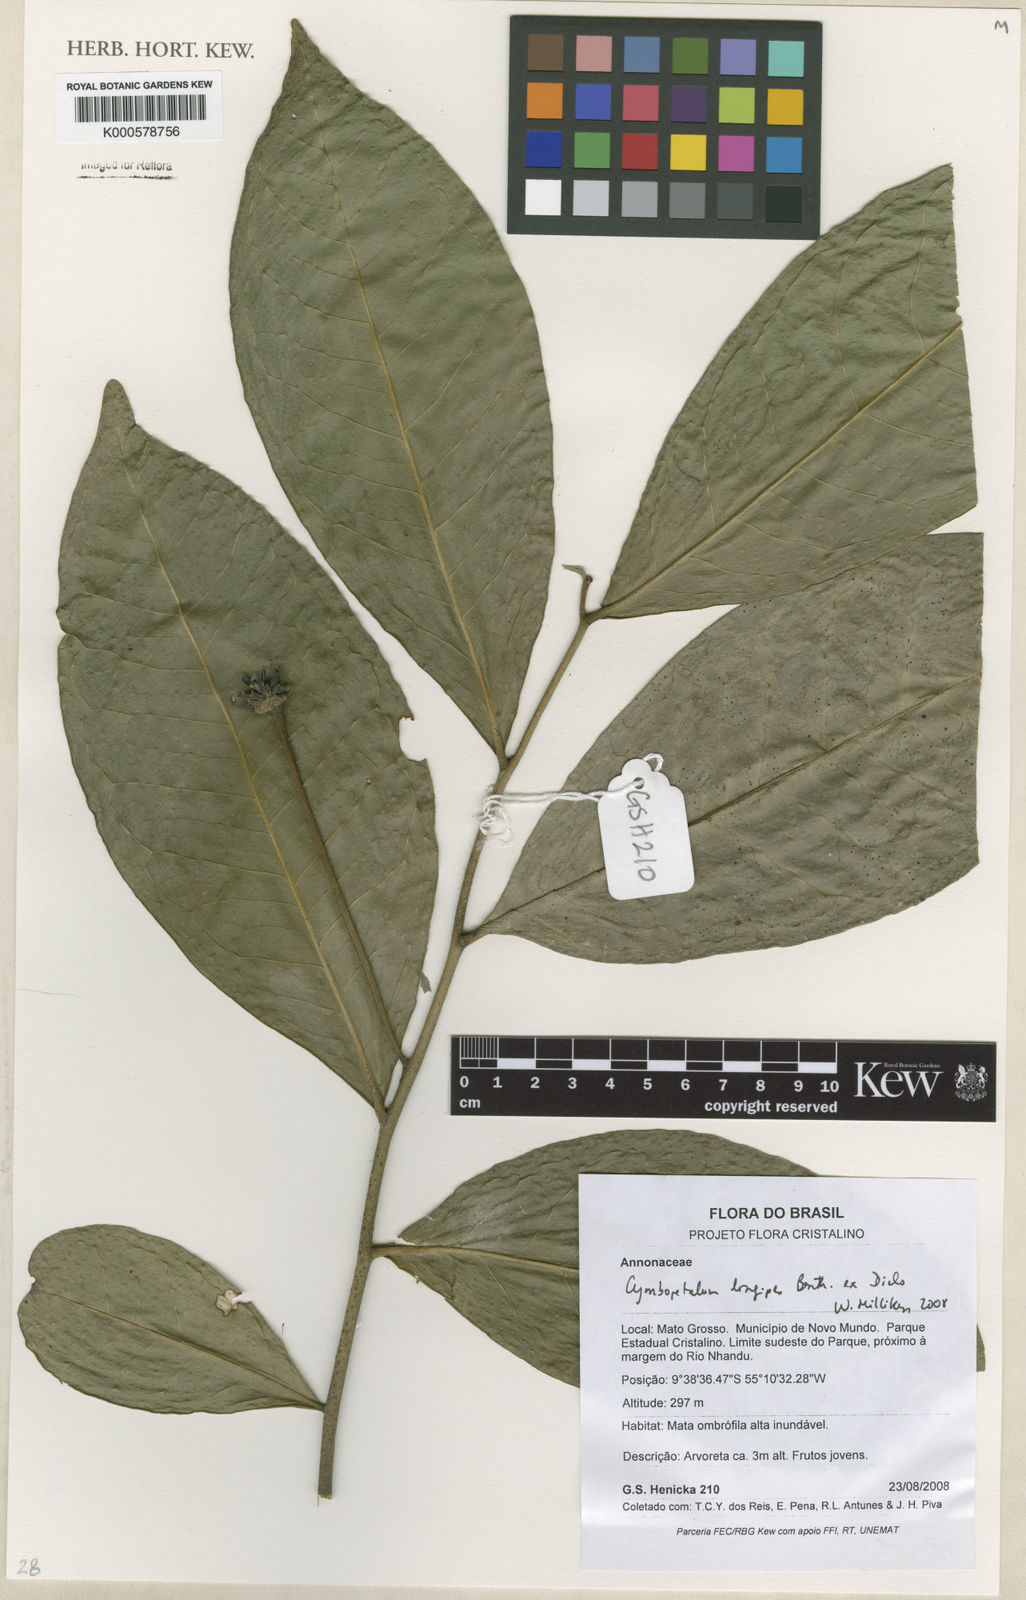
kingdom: Plantae
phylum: Tracheophyta
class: Magnoliopsida
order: Magnoliales
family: Annonaceae
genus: Cymbopetalum
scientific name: Cymbopetalum longipes
